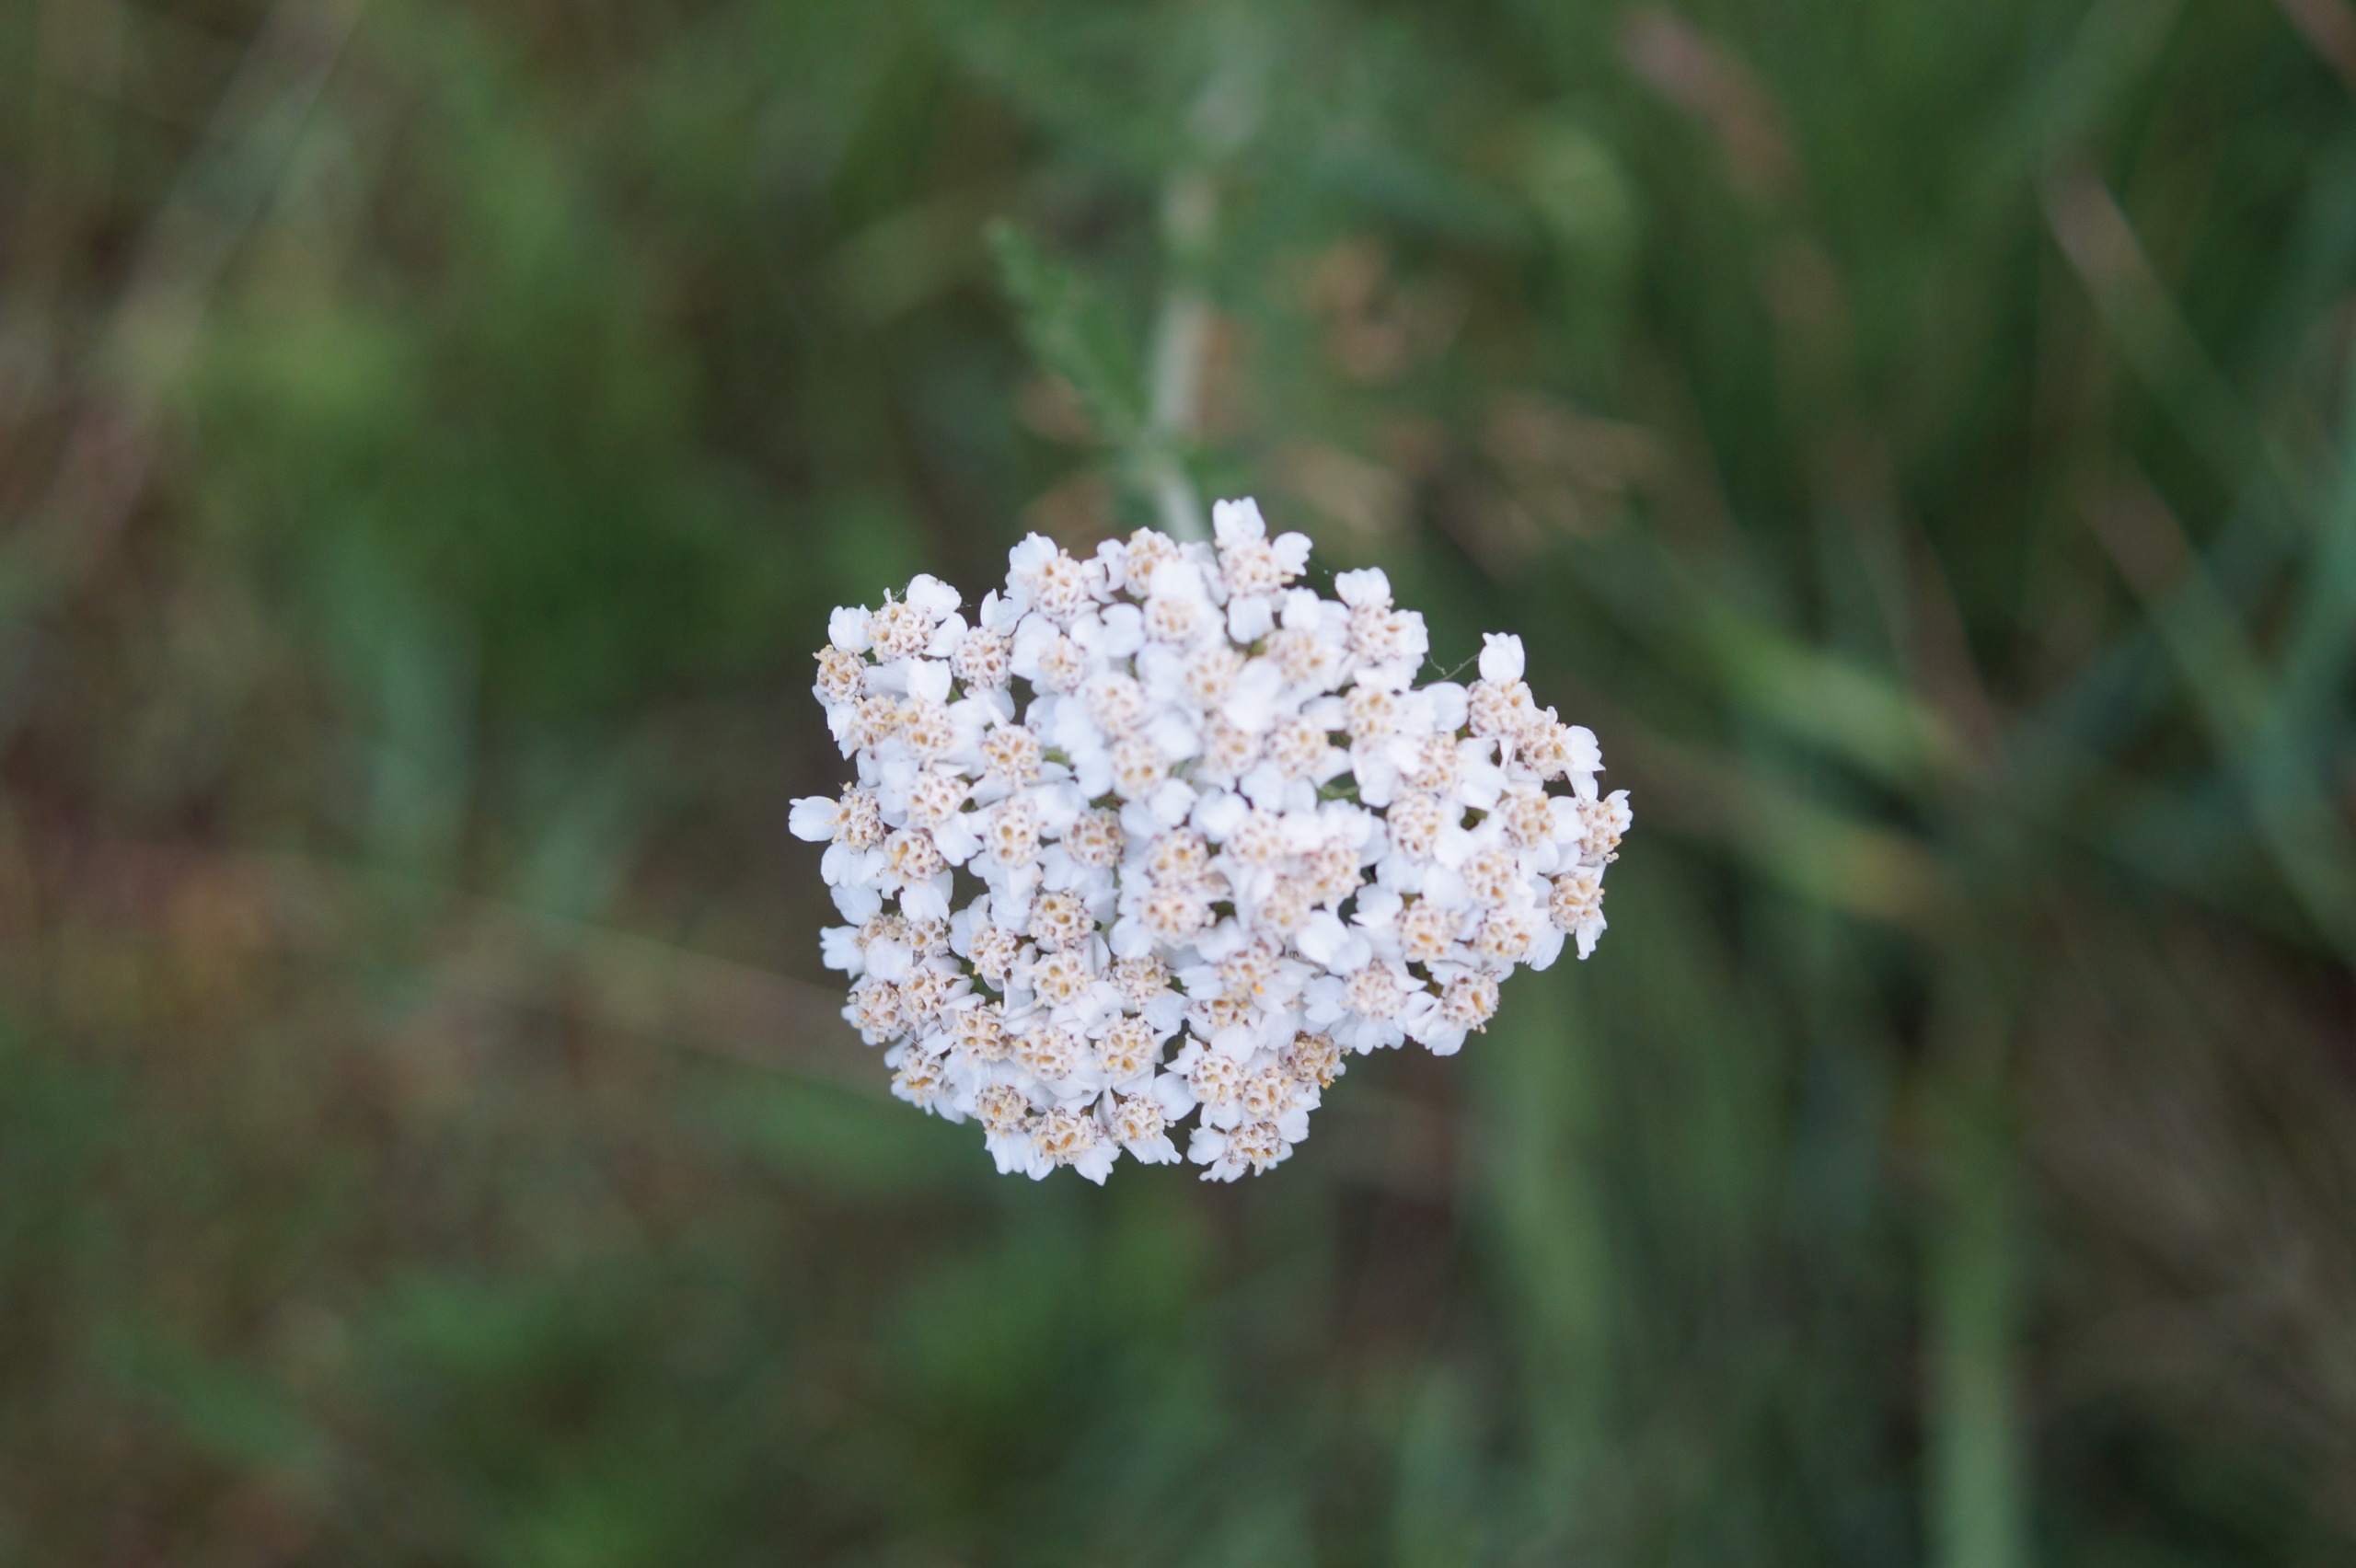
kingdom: Plantae
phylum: Tracheophyta
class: Magnoliopsida
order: Asterales
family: Asteraceae
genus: Achillea
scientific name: Achillea millefolium
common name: Almindelig røllike
